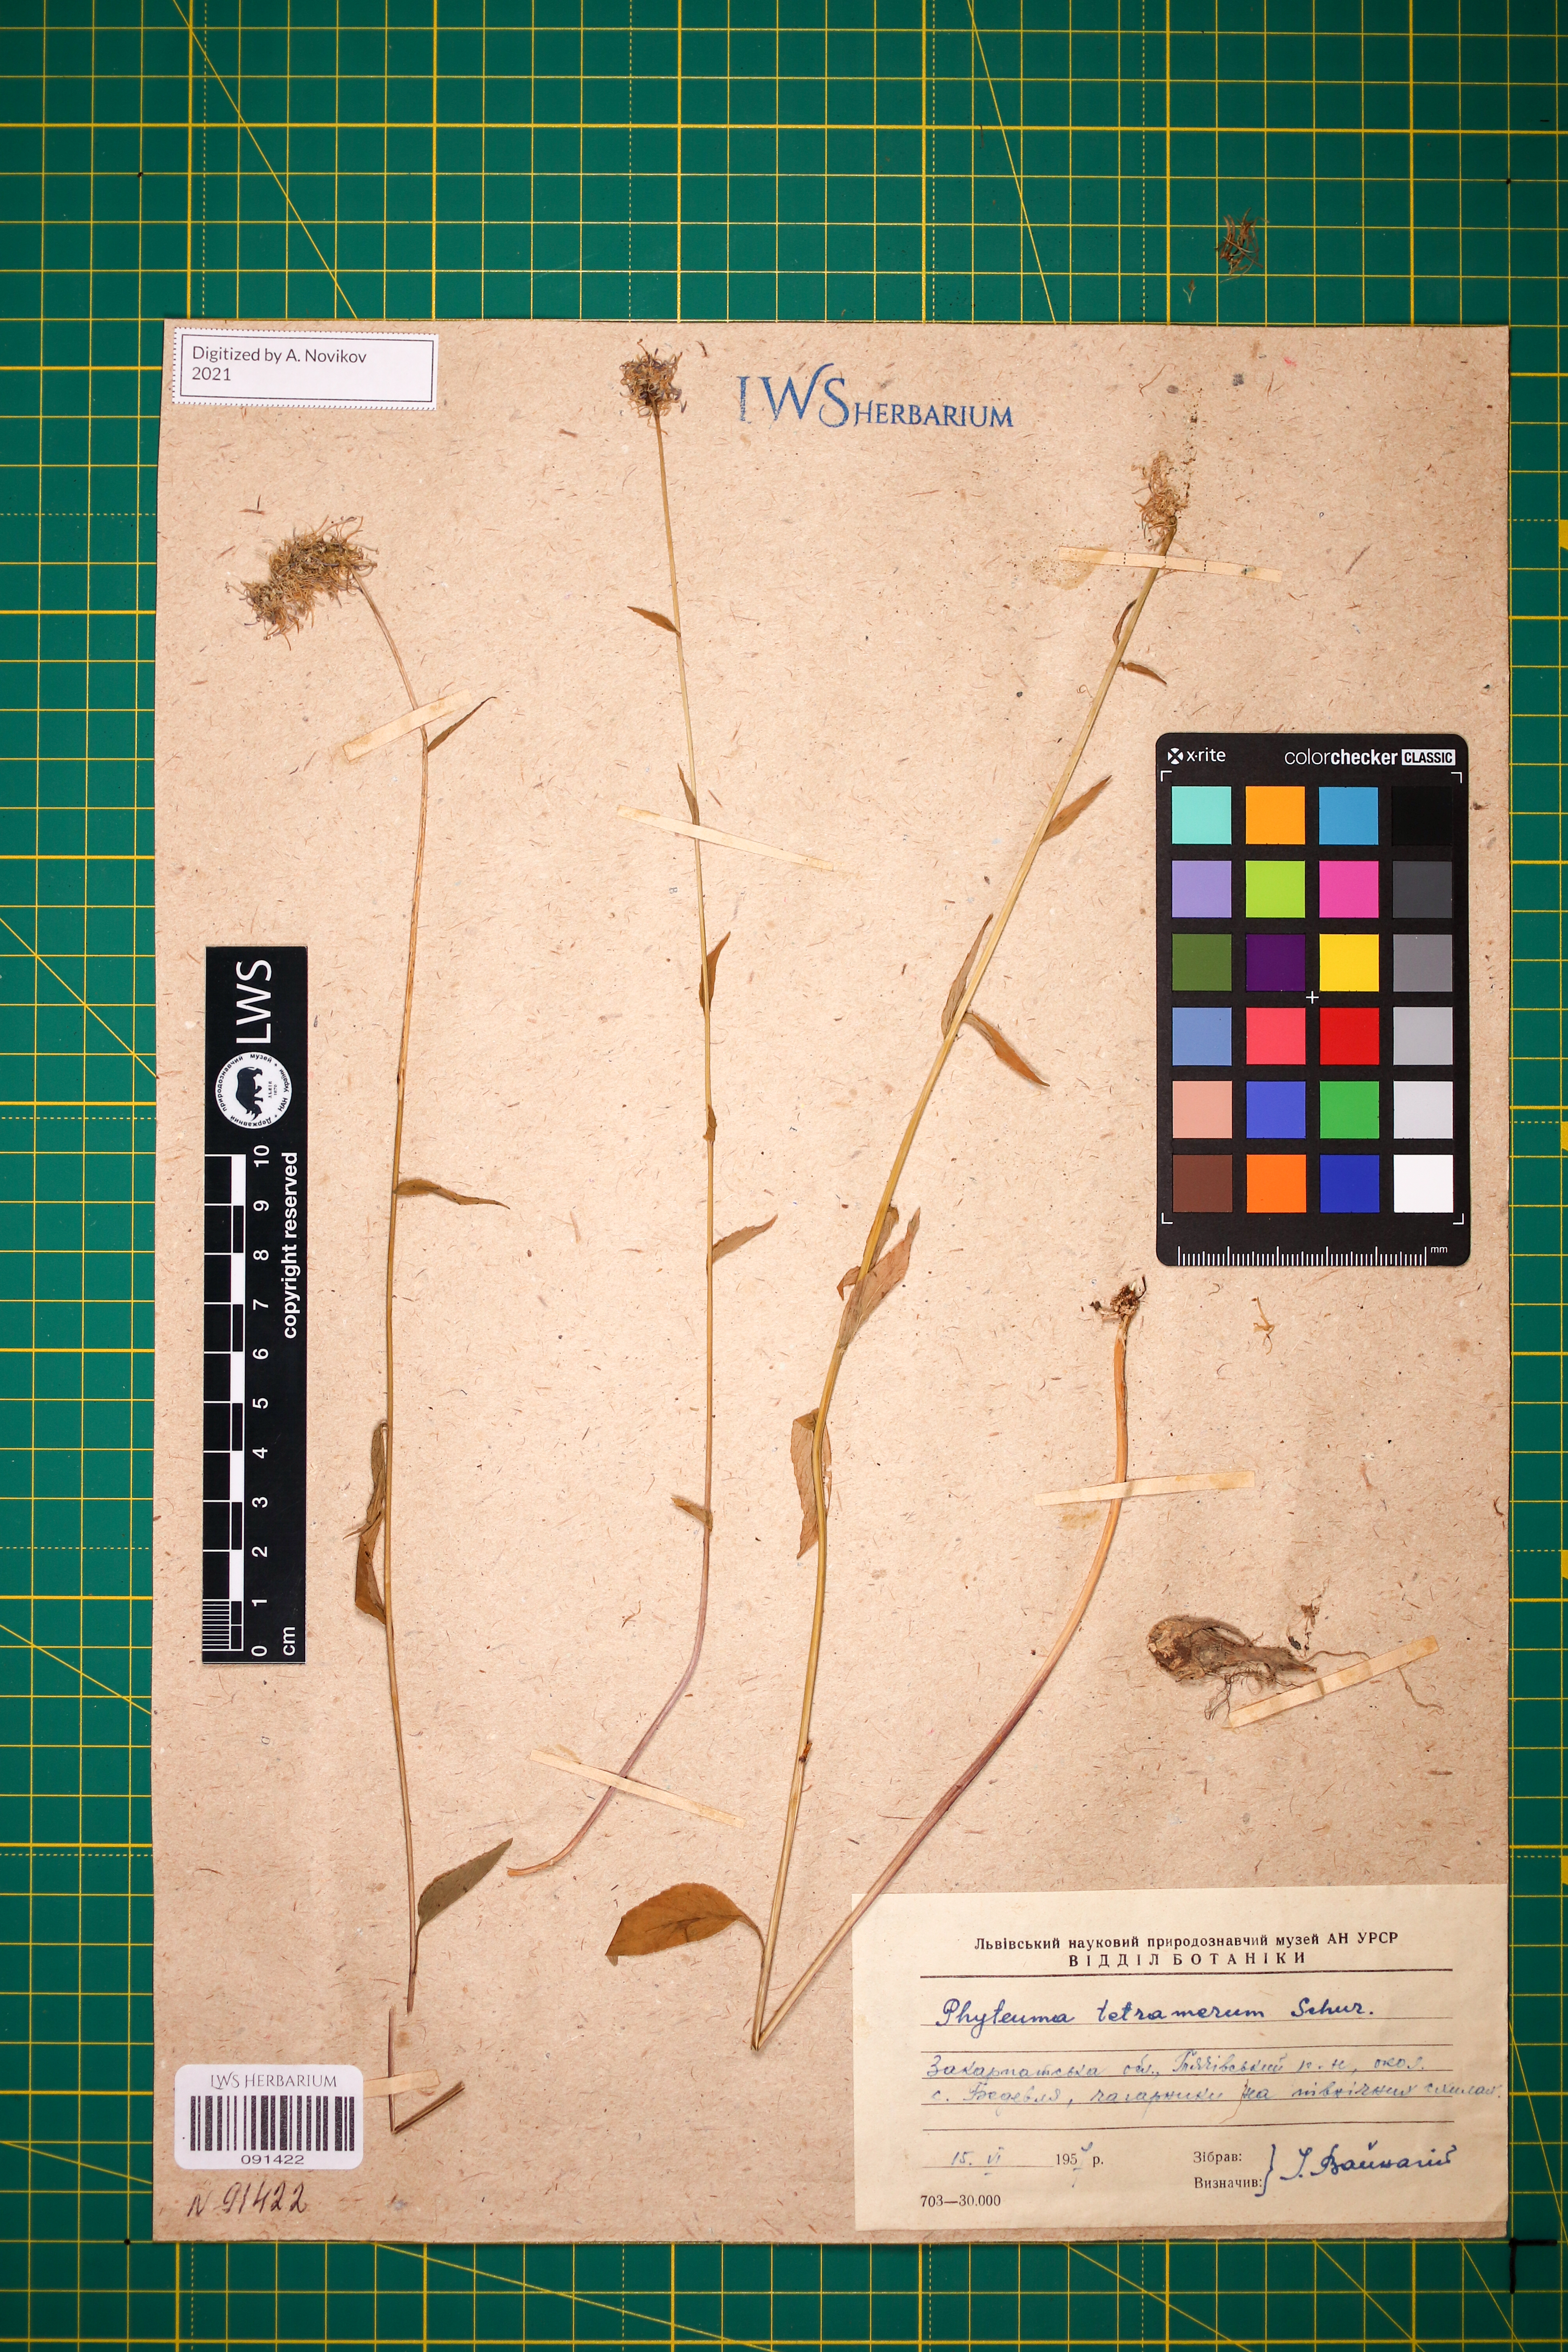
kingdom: Plantae
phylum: Tracheophyta
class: Magnoliopsida
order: Asterales
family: Campanulaceae
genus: Phyteuma
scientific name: Phyteuma tetramerum
